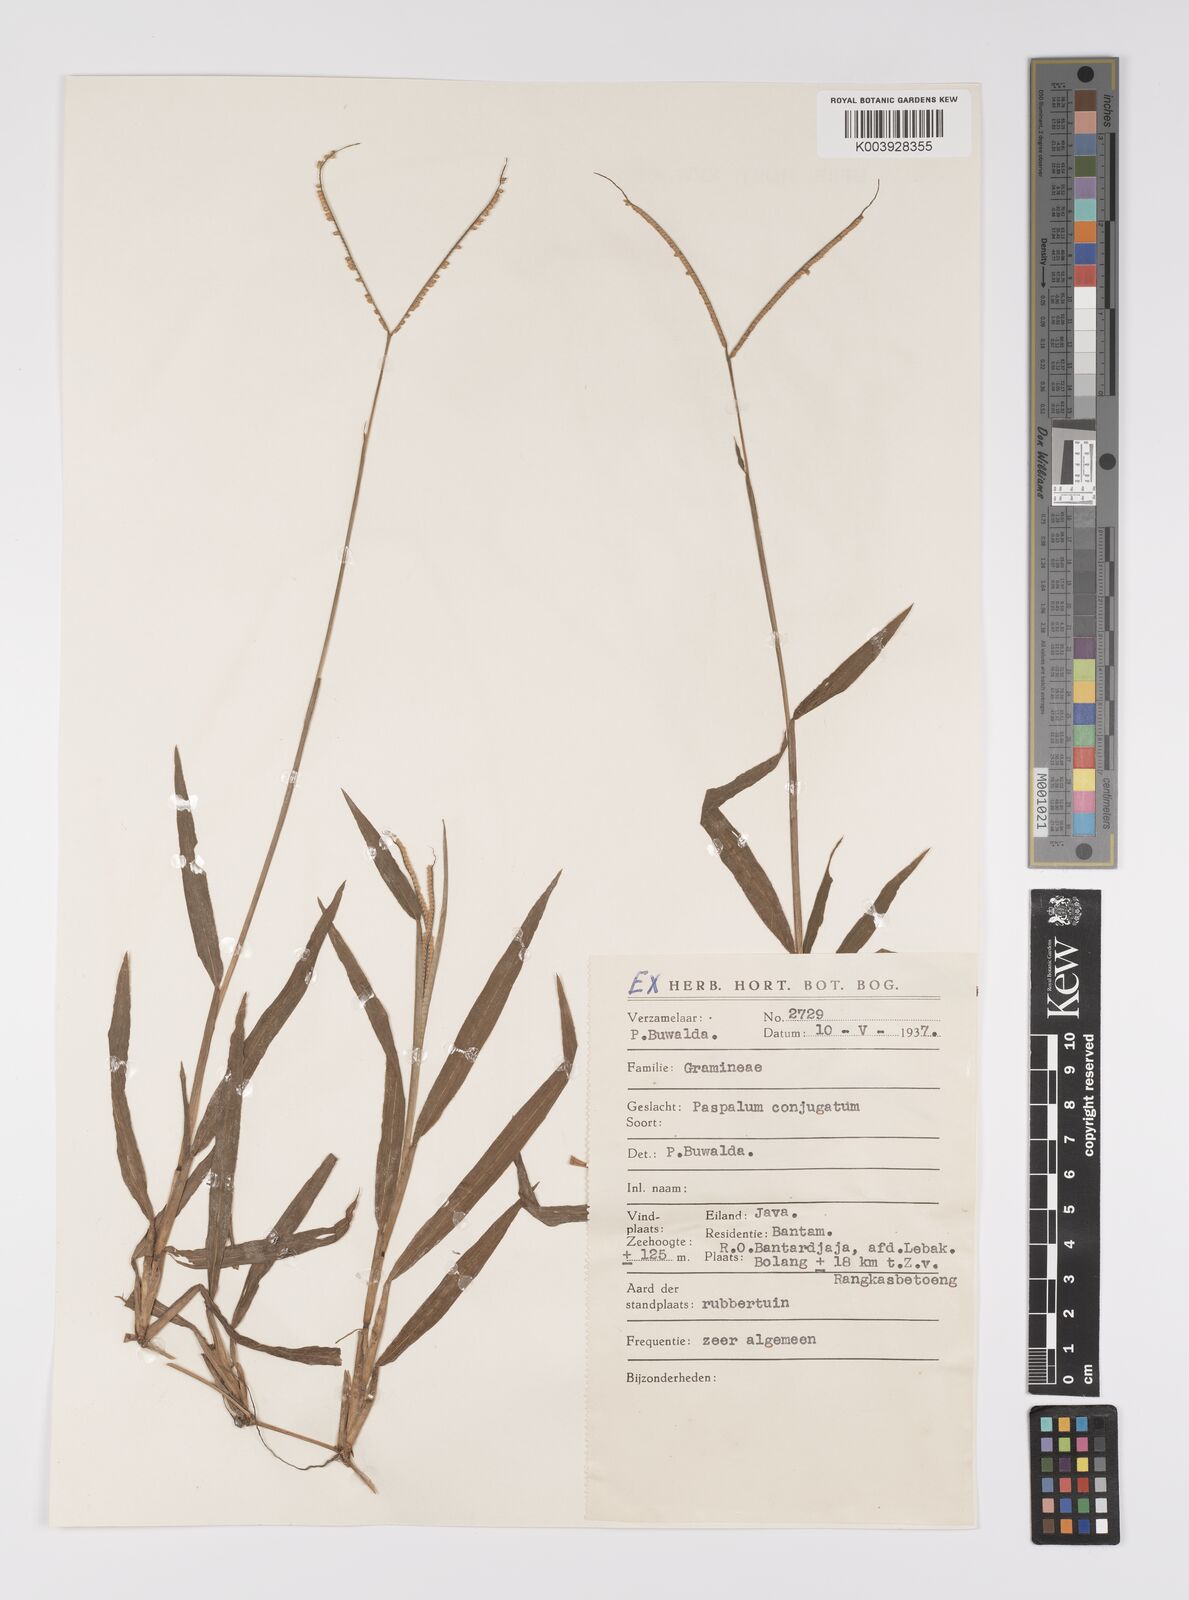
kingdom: Plantae
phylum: Tracheophyta
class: Liliopsida
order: Poales
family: Poaceae
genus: Paspalum
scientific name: Paspalum conjugatum
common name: Hilograss
